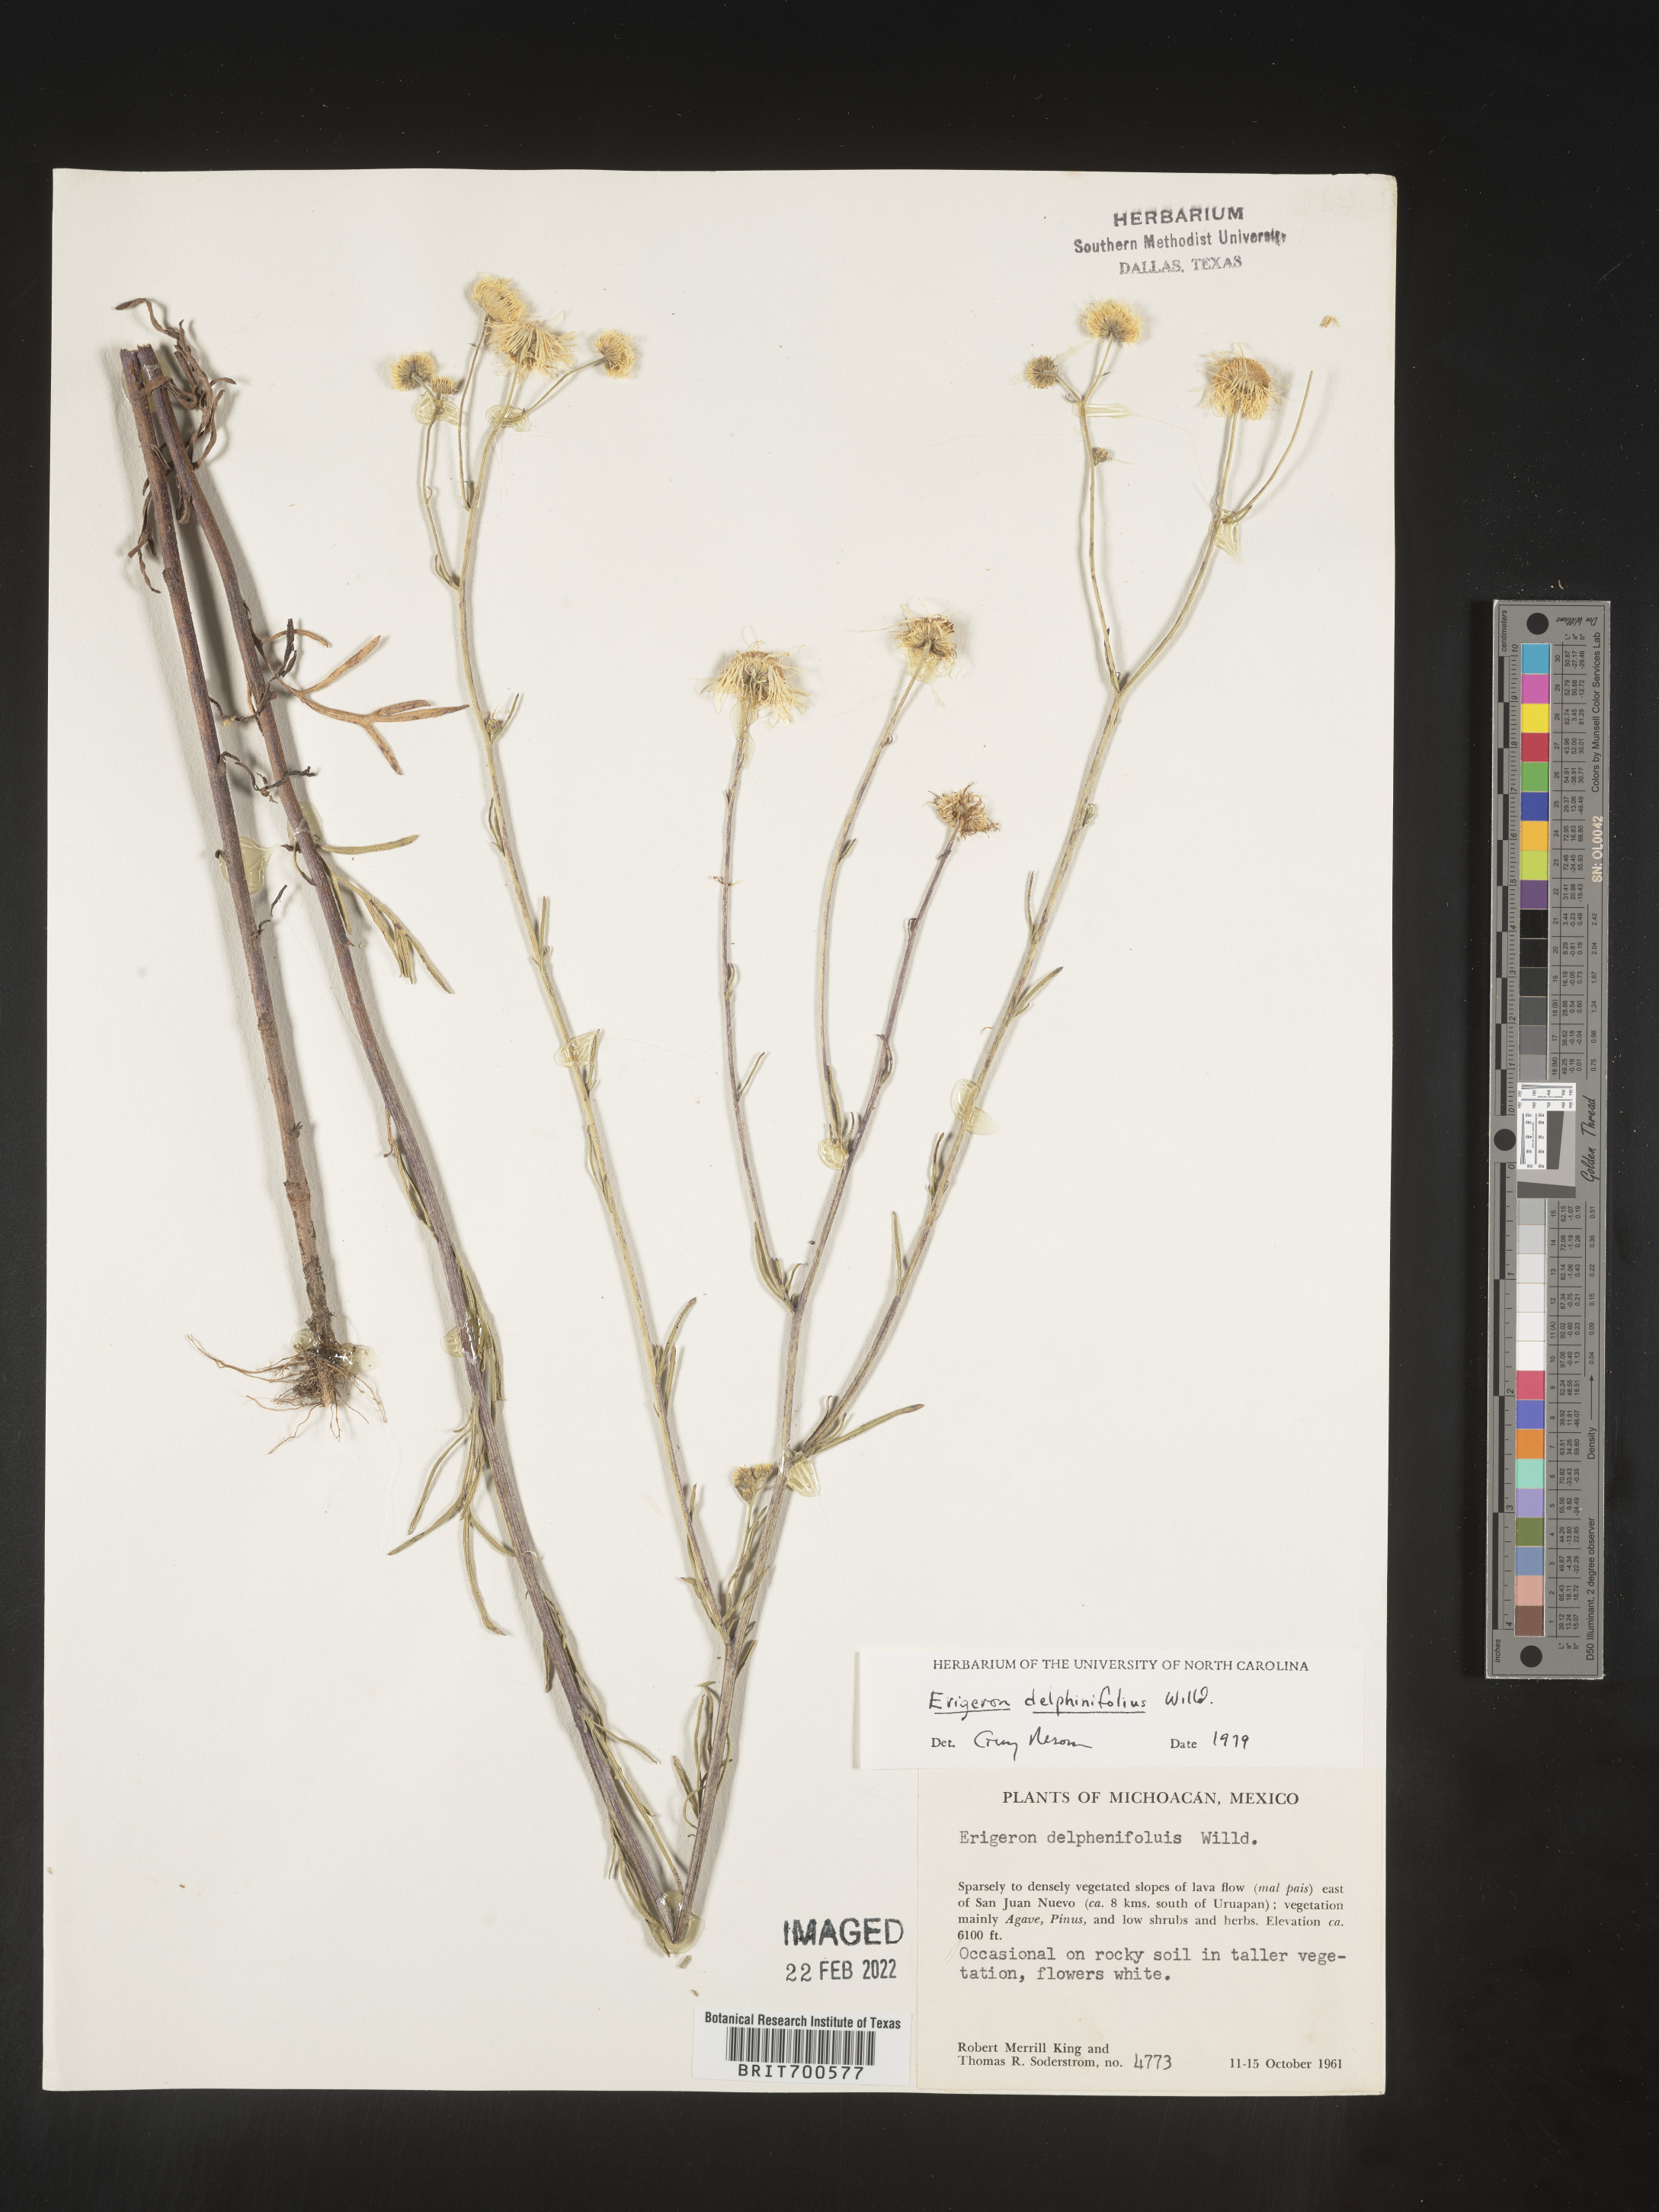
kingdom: Plantae
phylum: Tracheophyta
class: Magnoliopsida
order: Asterales
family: Asteraceae
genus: Erigeron
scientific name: Erigeron delphinifolius
